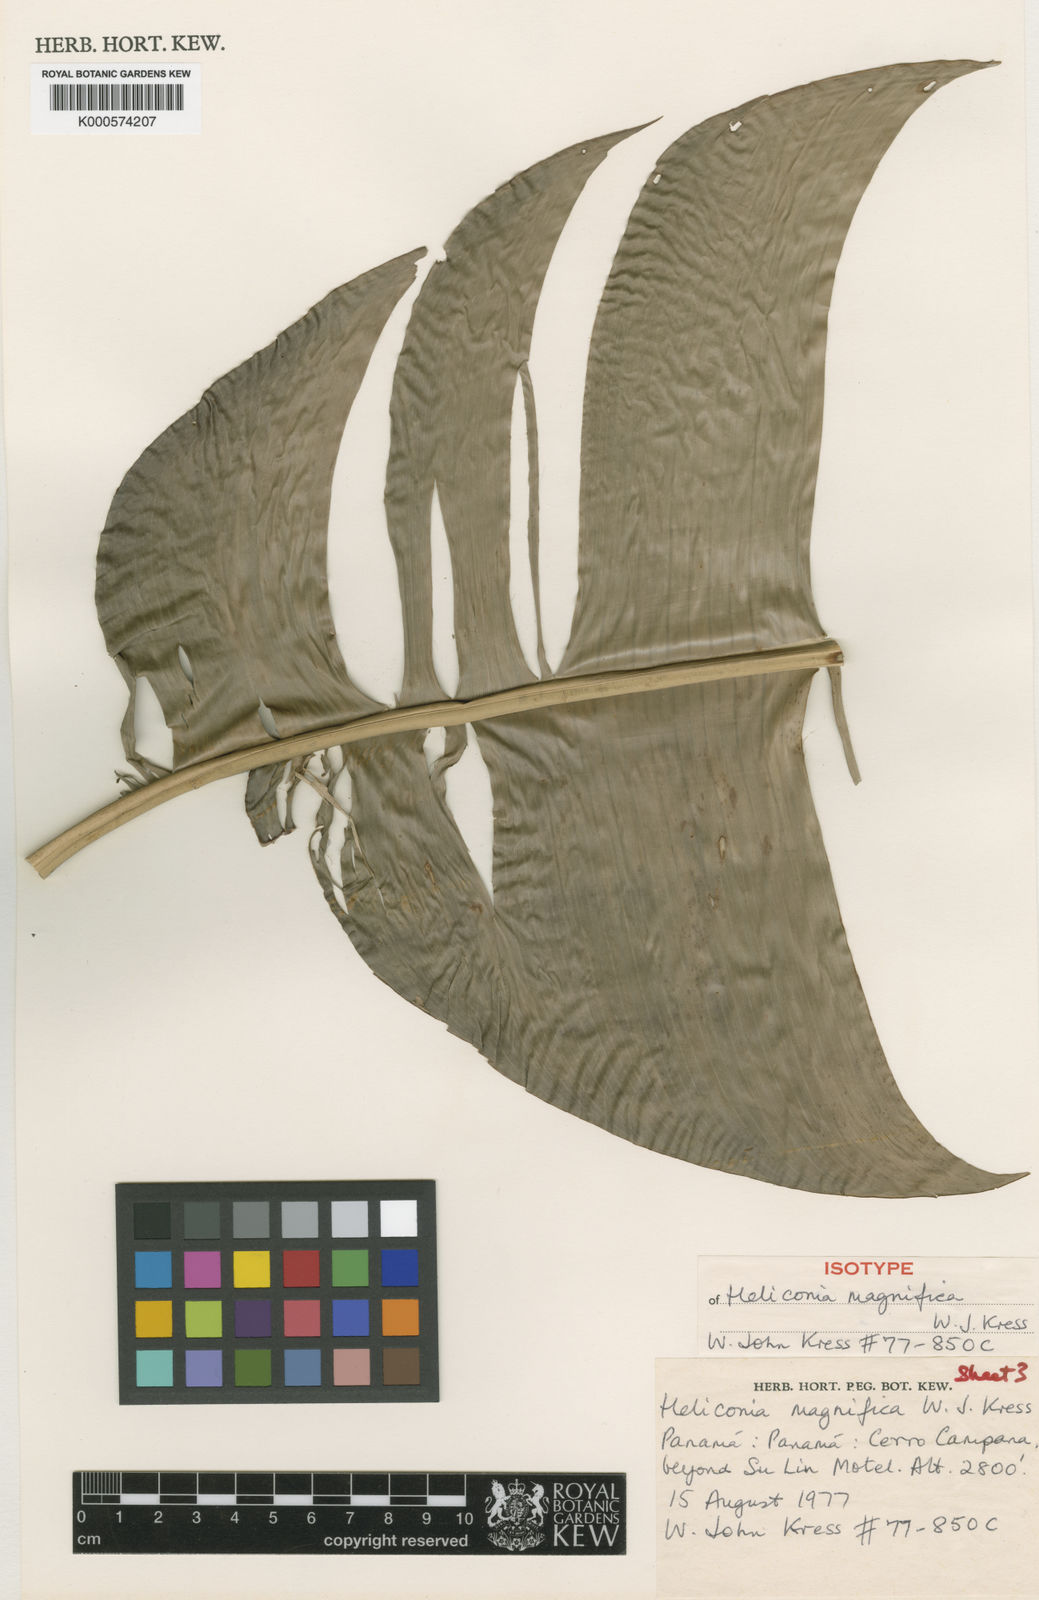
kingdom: Plantae
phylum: Tracheophyta
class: Liliopsida
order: Zingiberales
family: Heliconiaceae
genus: Heliconia
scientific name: Heliconia magnifica
